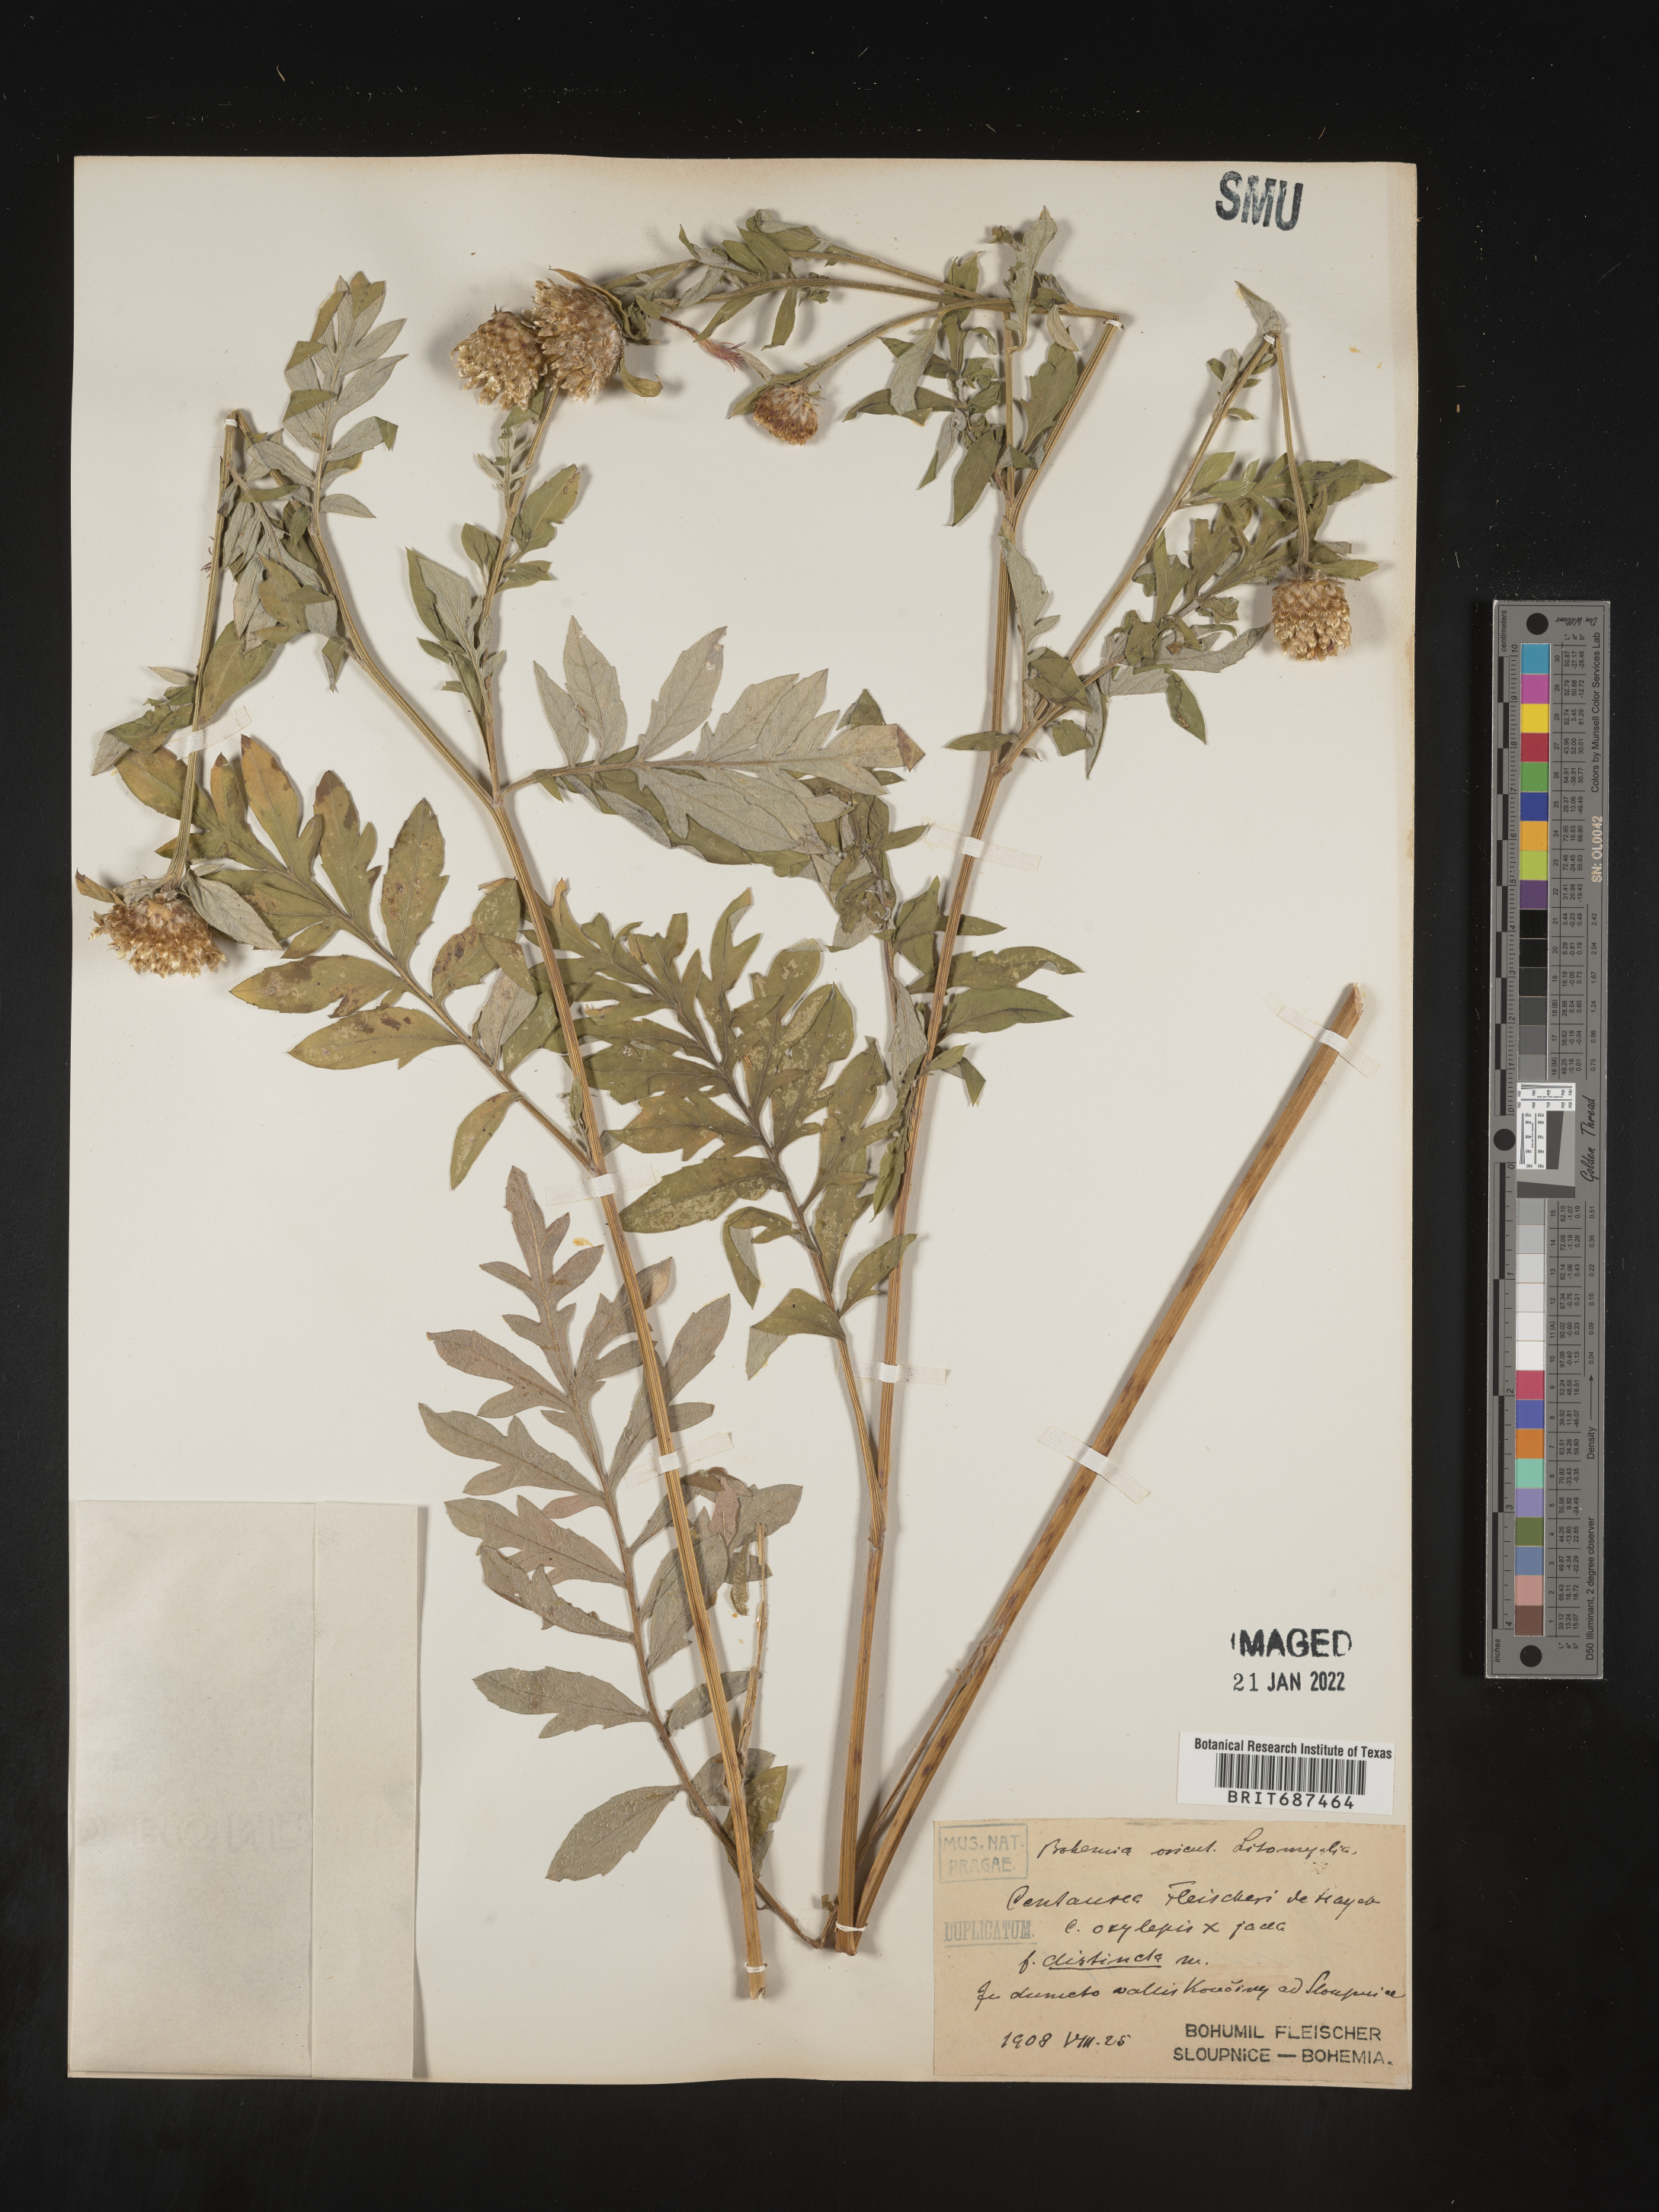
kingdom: Plantae
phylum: Tracheophyta
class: Magnoliopsida
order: Asterales
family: Asteraceae
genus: Centaurea
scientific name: Centaurea
